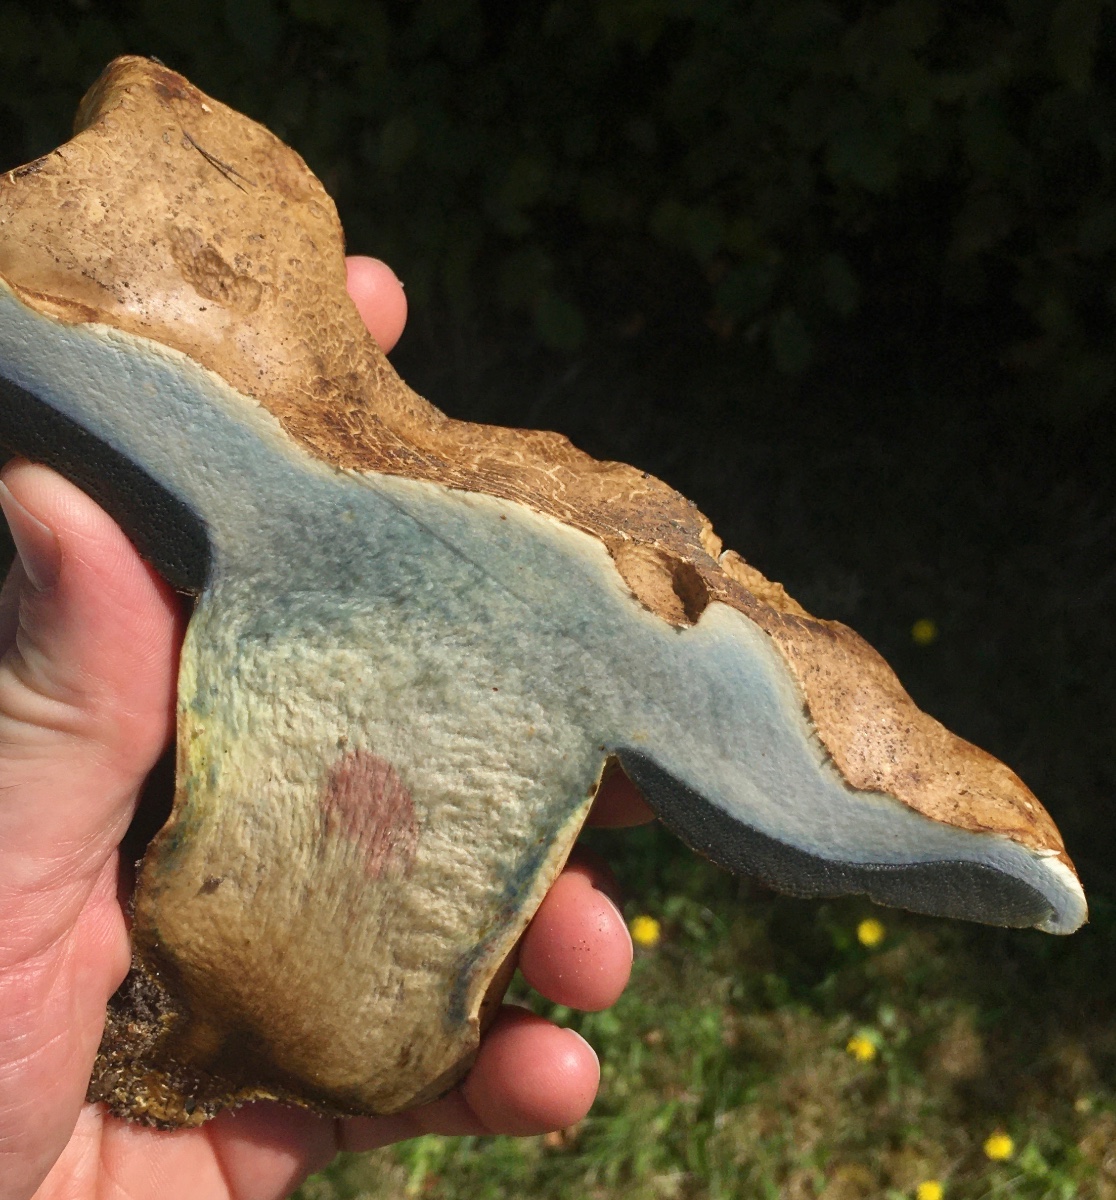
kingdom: Fungi
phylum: Basidiomycota
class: Agaricomycetes
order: Boletales
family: Boletaceae
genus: Caloboletus
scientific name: Caloboletus radicans
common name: rod-rørhat
